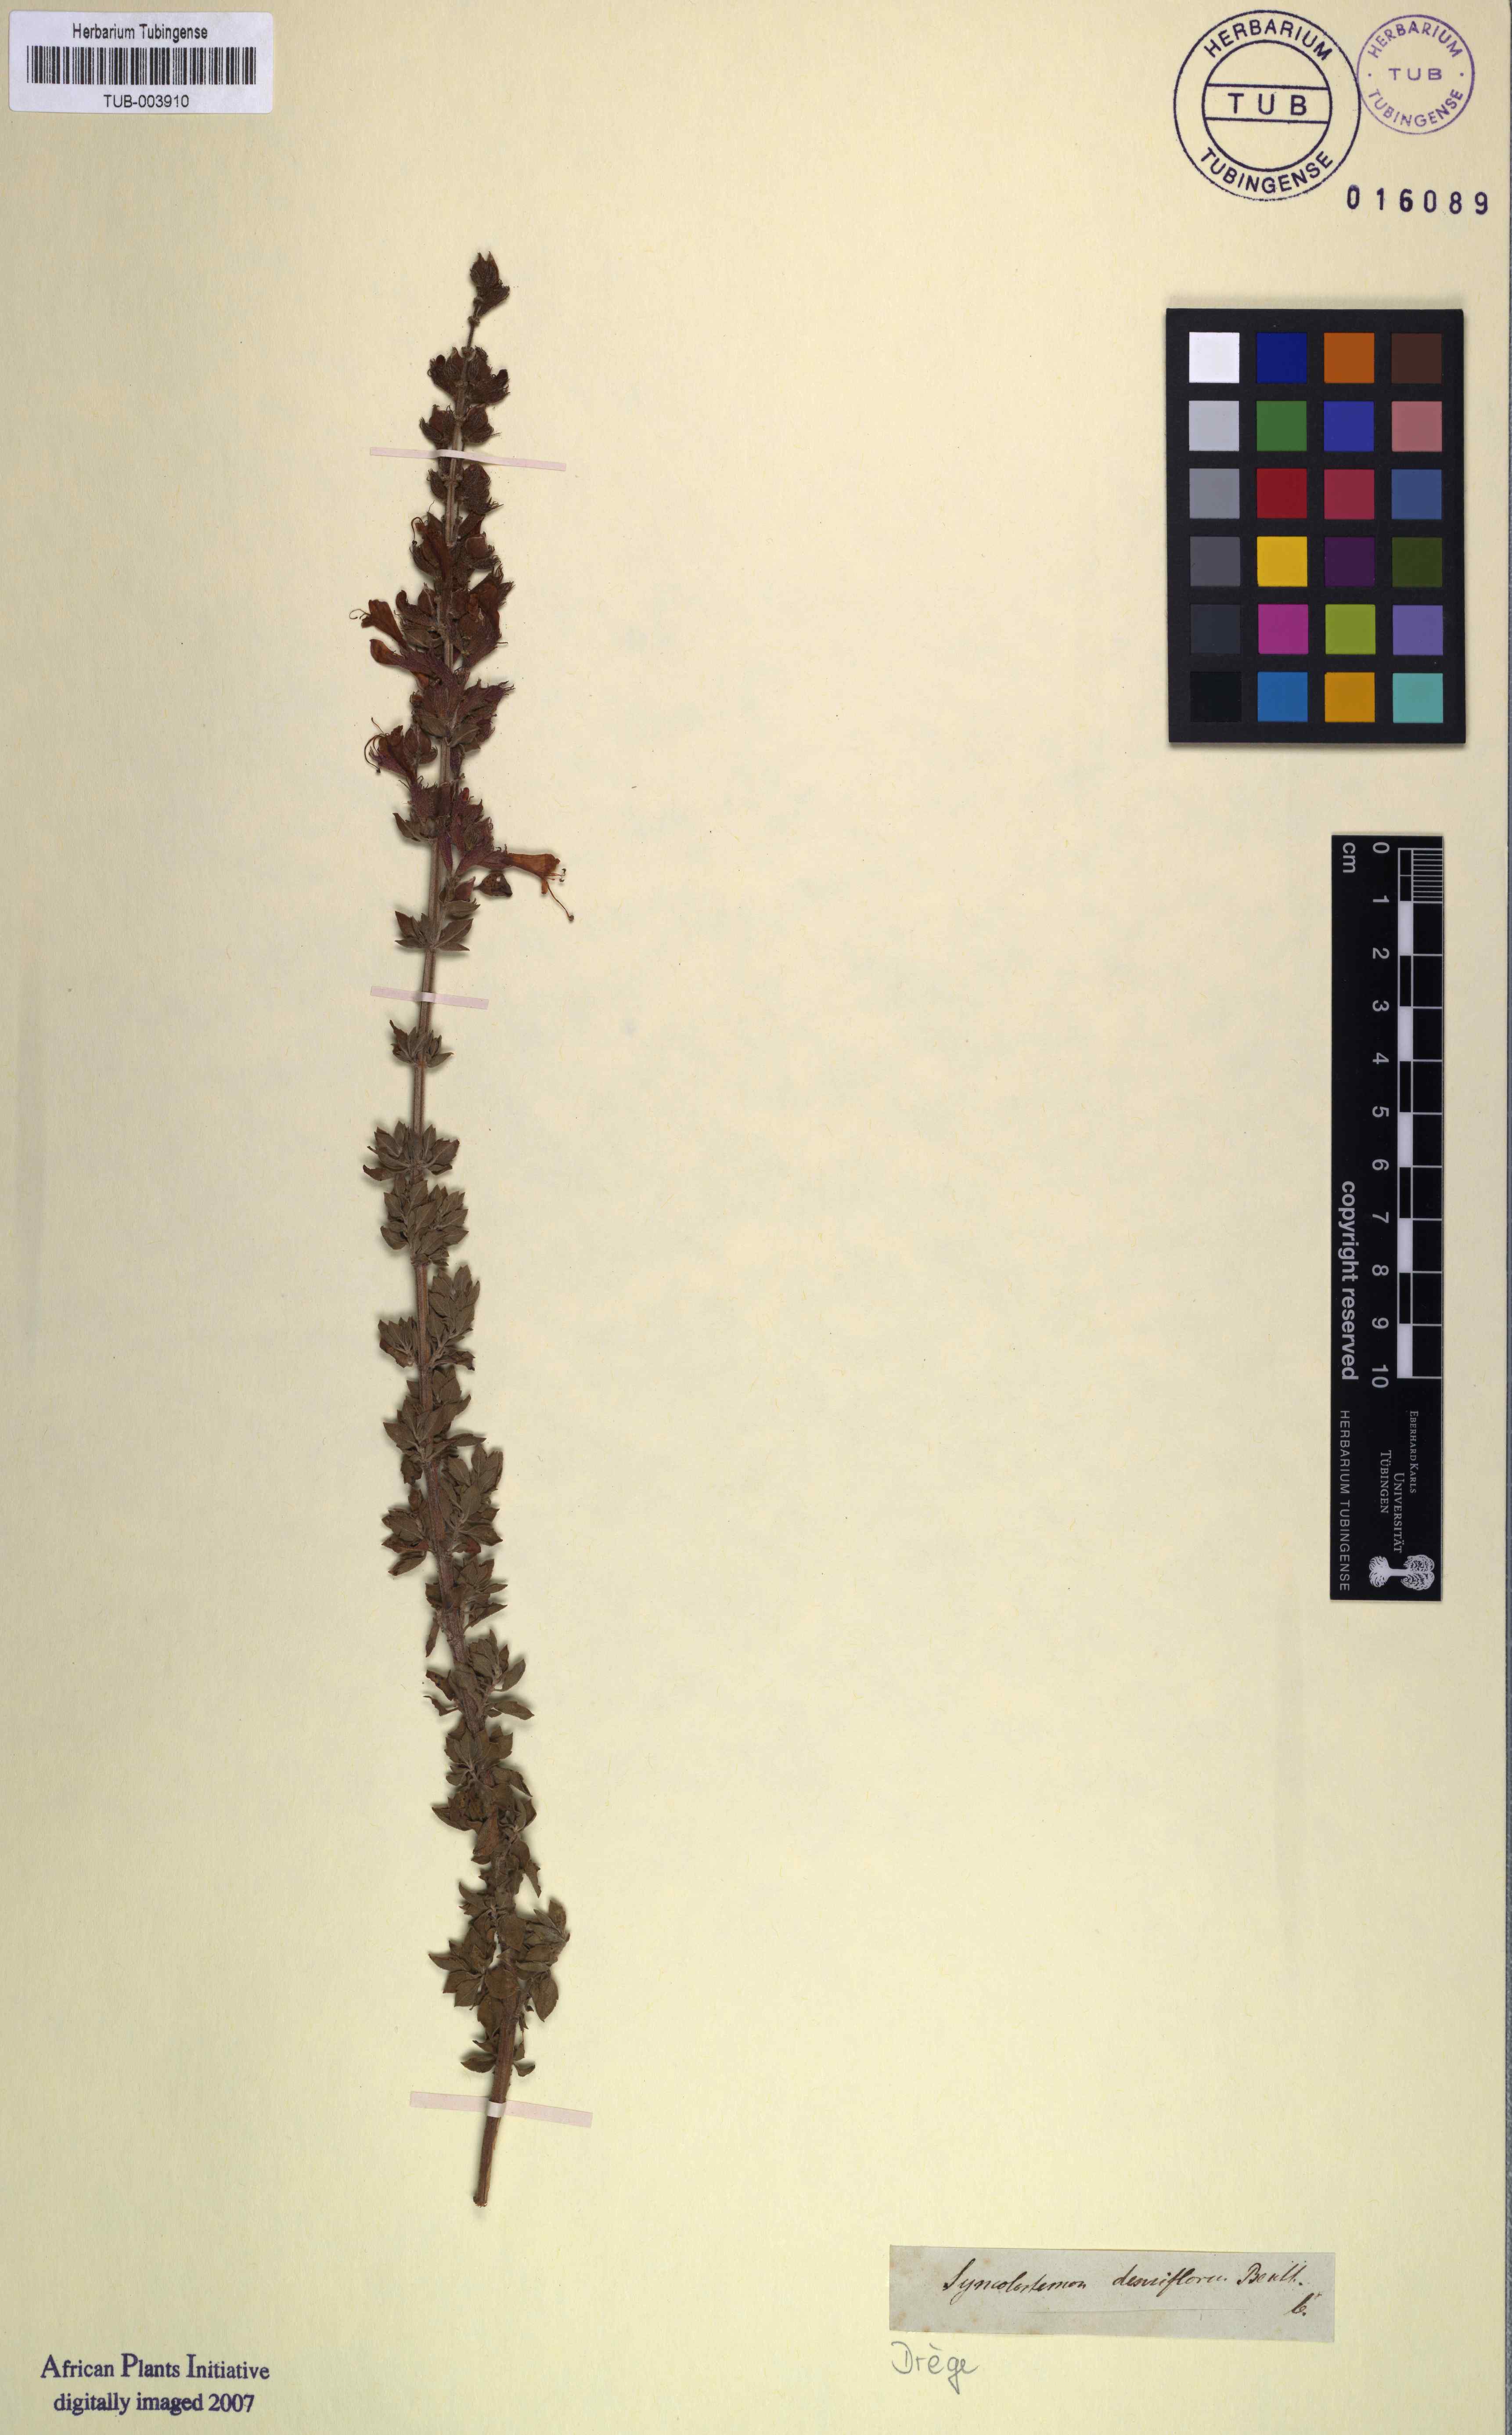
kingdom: Plantae
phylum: Tracheophyta
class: Magnoliopsida
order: Lamiales
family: Lamiaceae
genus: Syncolostemon
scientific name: Syncolostemon densiflorus
